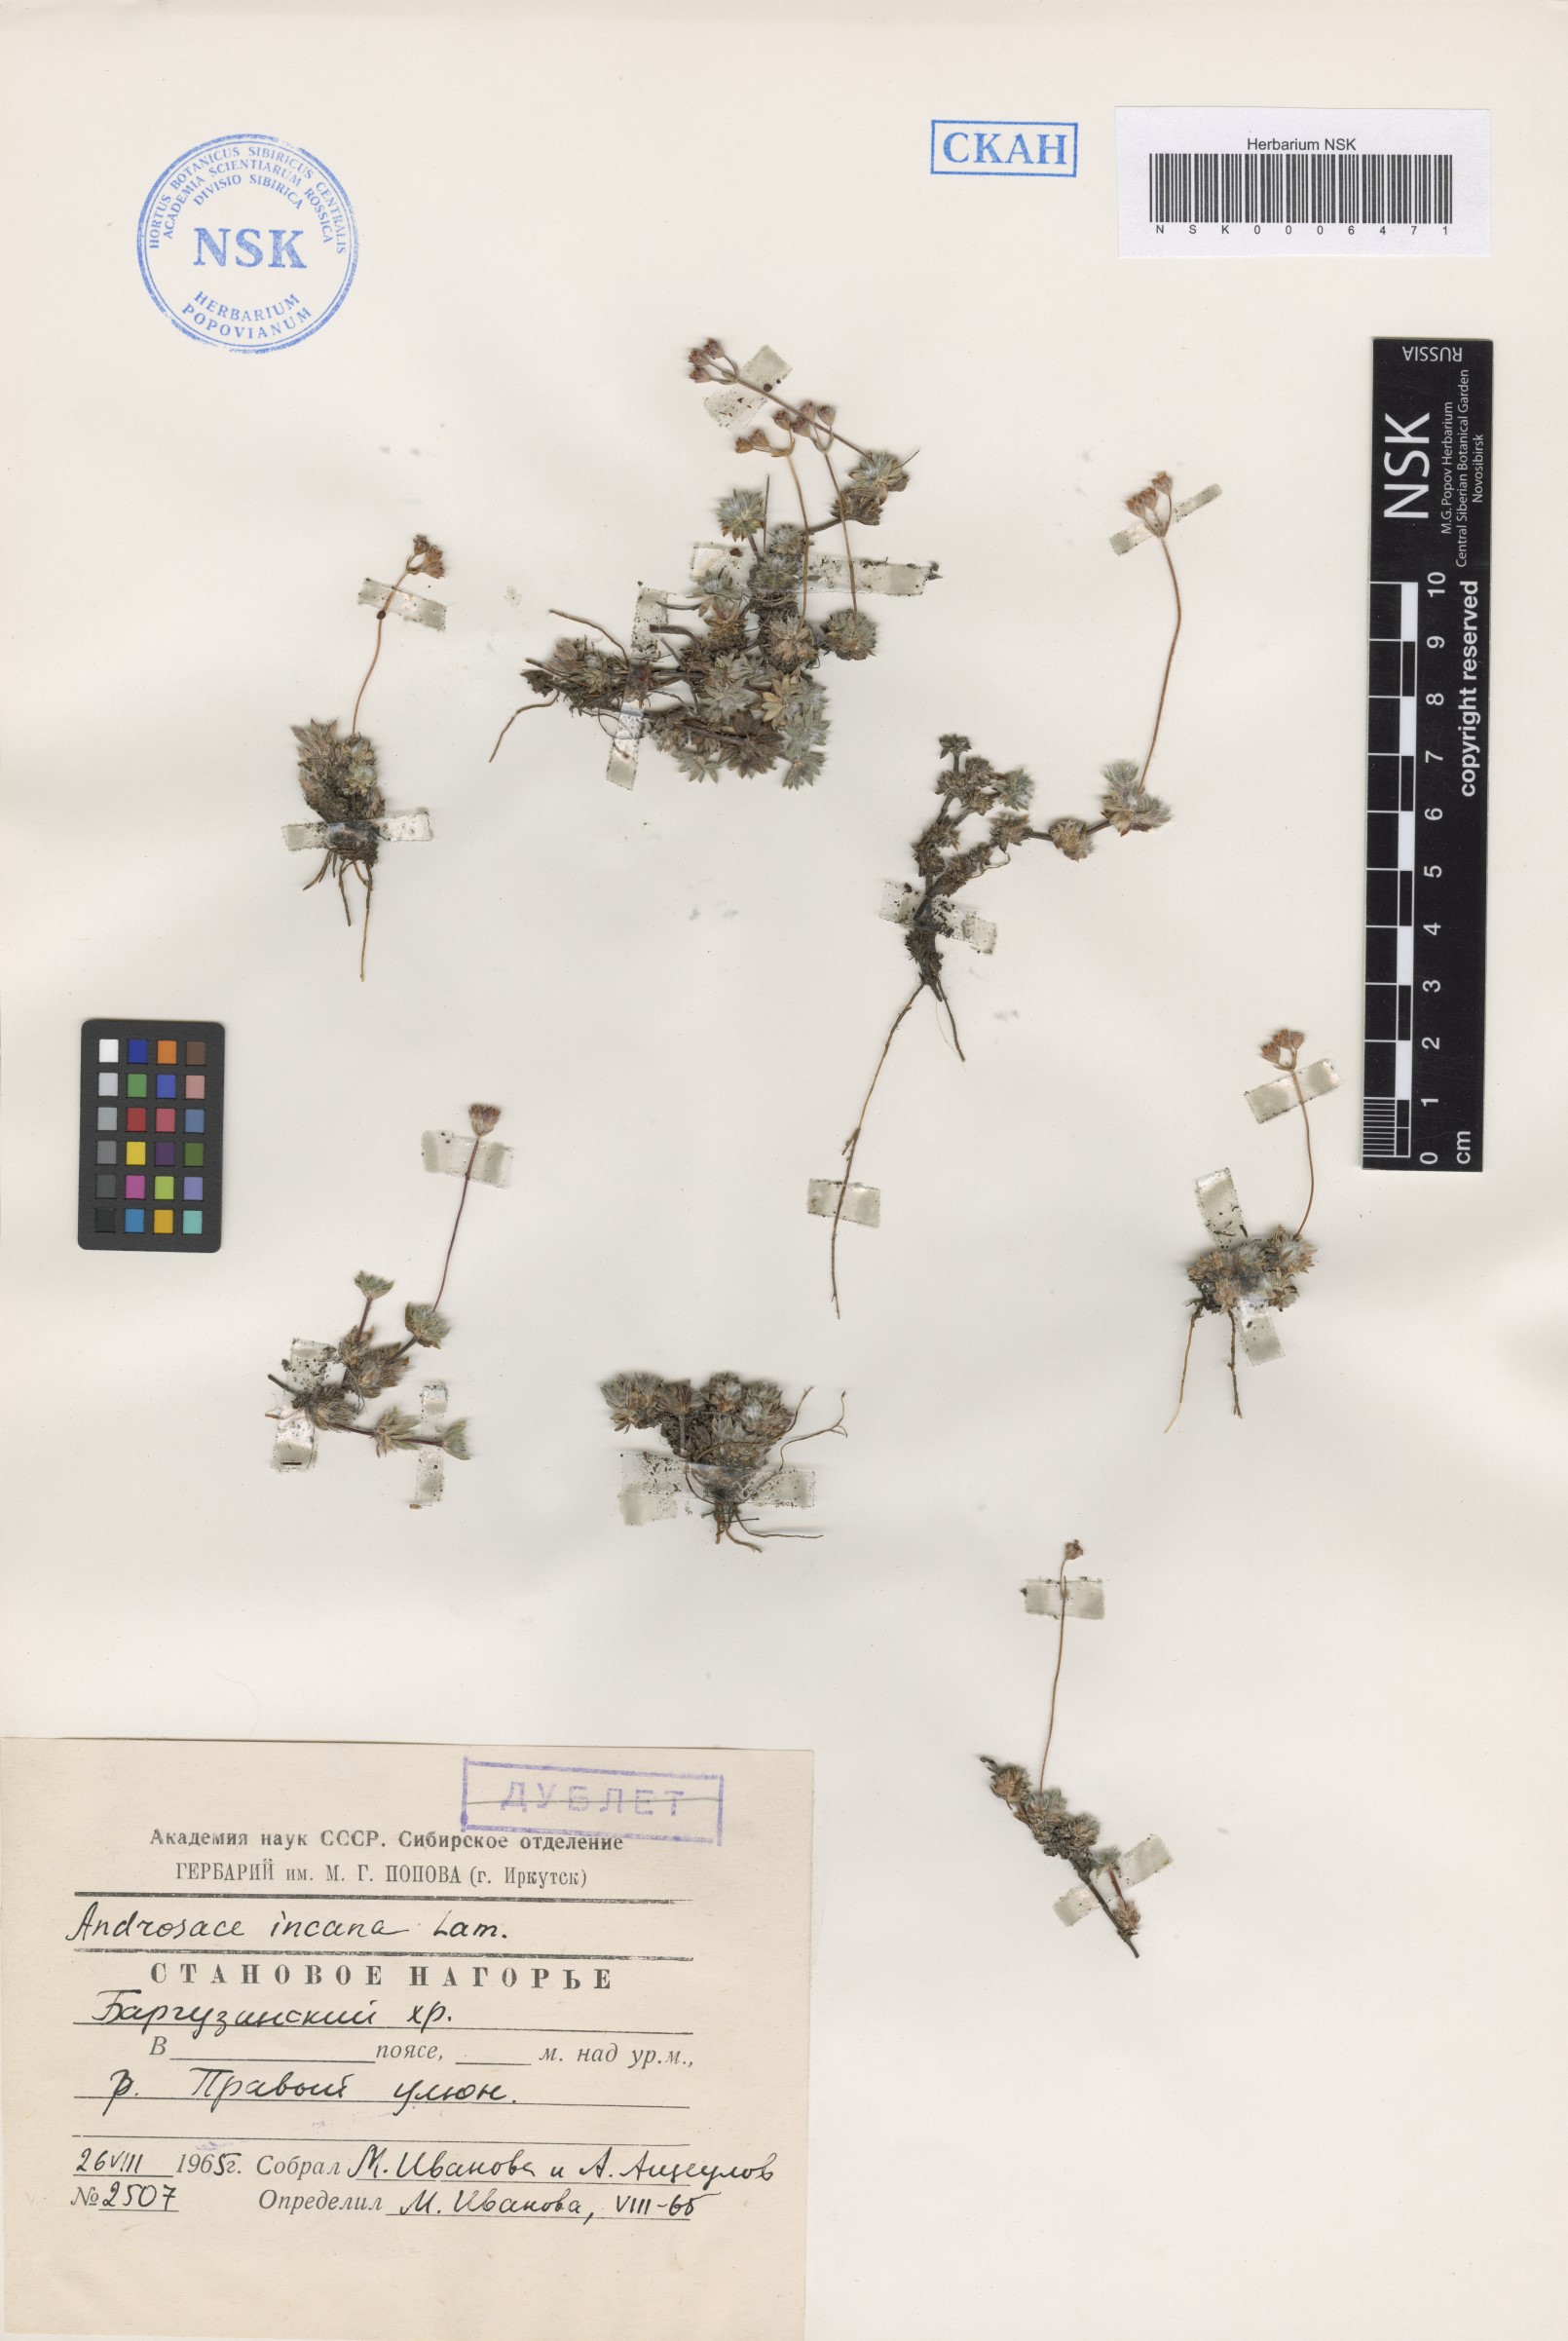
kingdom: Plantae
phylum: Tracheophyta
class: Magnoliopsida
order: Ericales
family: Primulaceae
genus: Androsace
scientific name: Androsace incana
